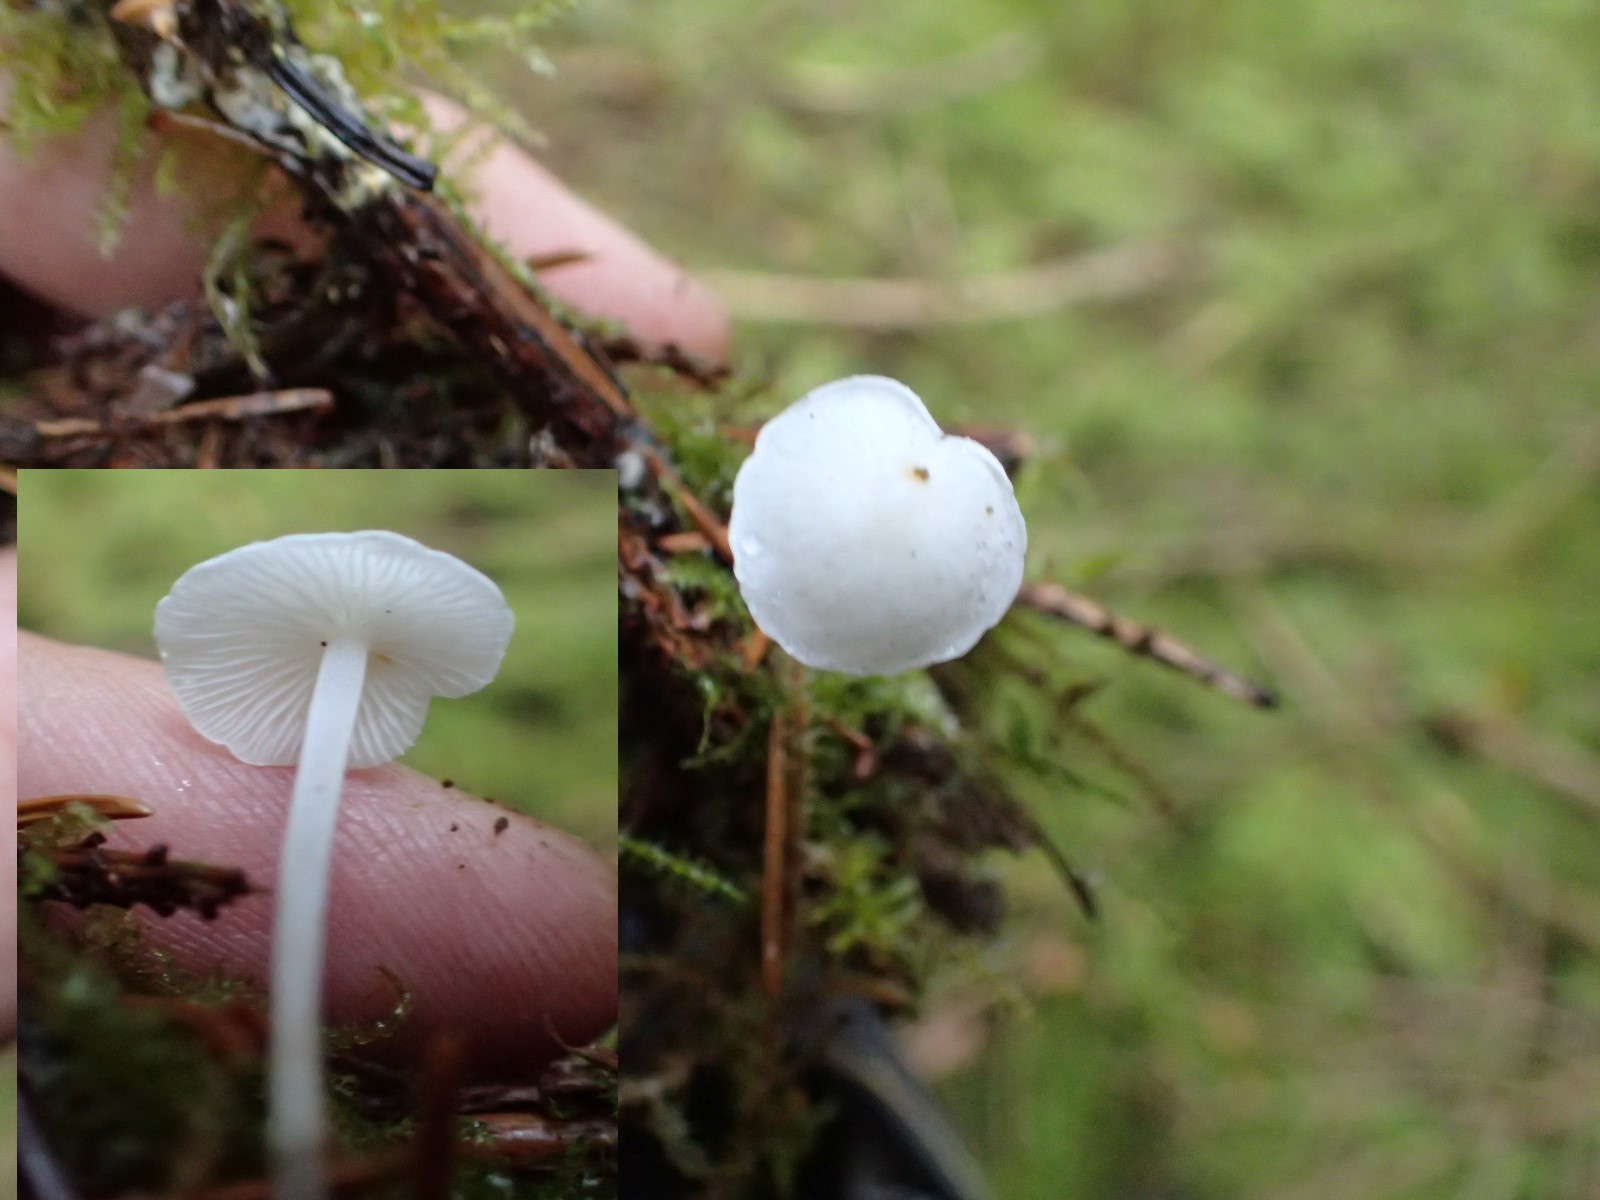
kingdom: Fungi
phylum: Basidiomycota
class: Agaricomycetes
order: Agaricales
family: Mycenaceae
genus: Hemimycena
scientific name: Hemimycena
